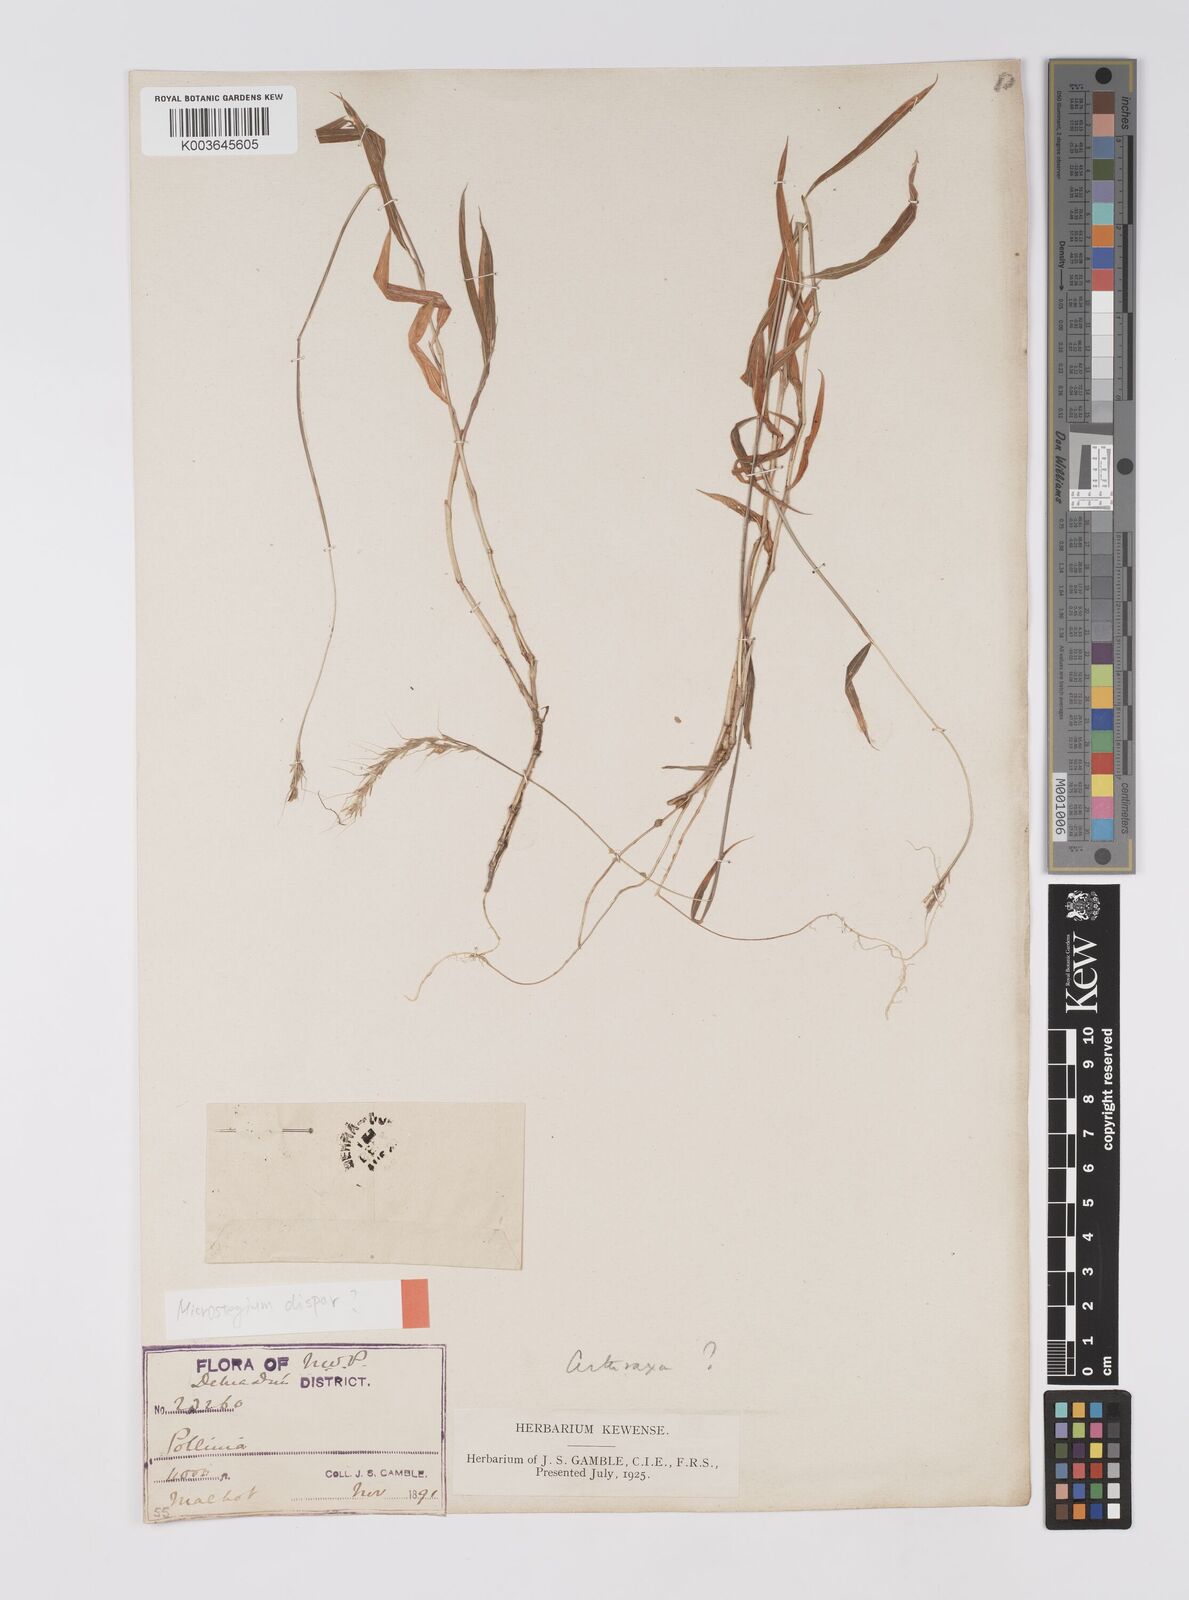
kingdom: Plantae
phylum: Tracheophyta
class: Liliopsida
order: Poales
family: Poaceae
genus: Microstegium
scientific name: Microstegium fasciculatum
